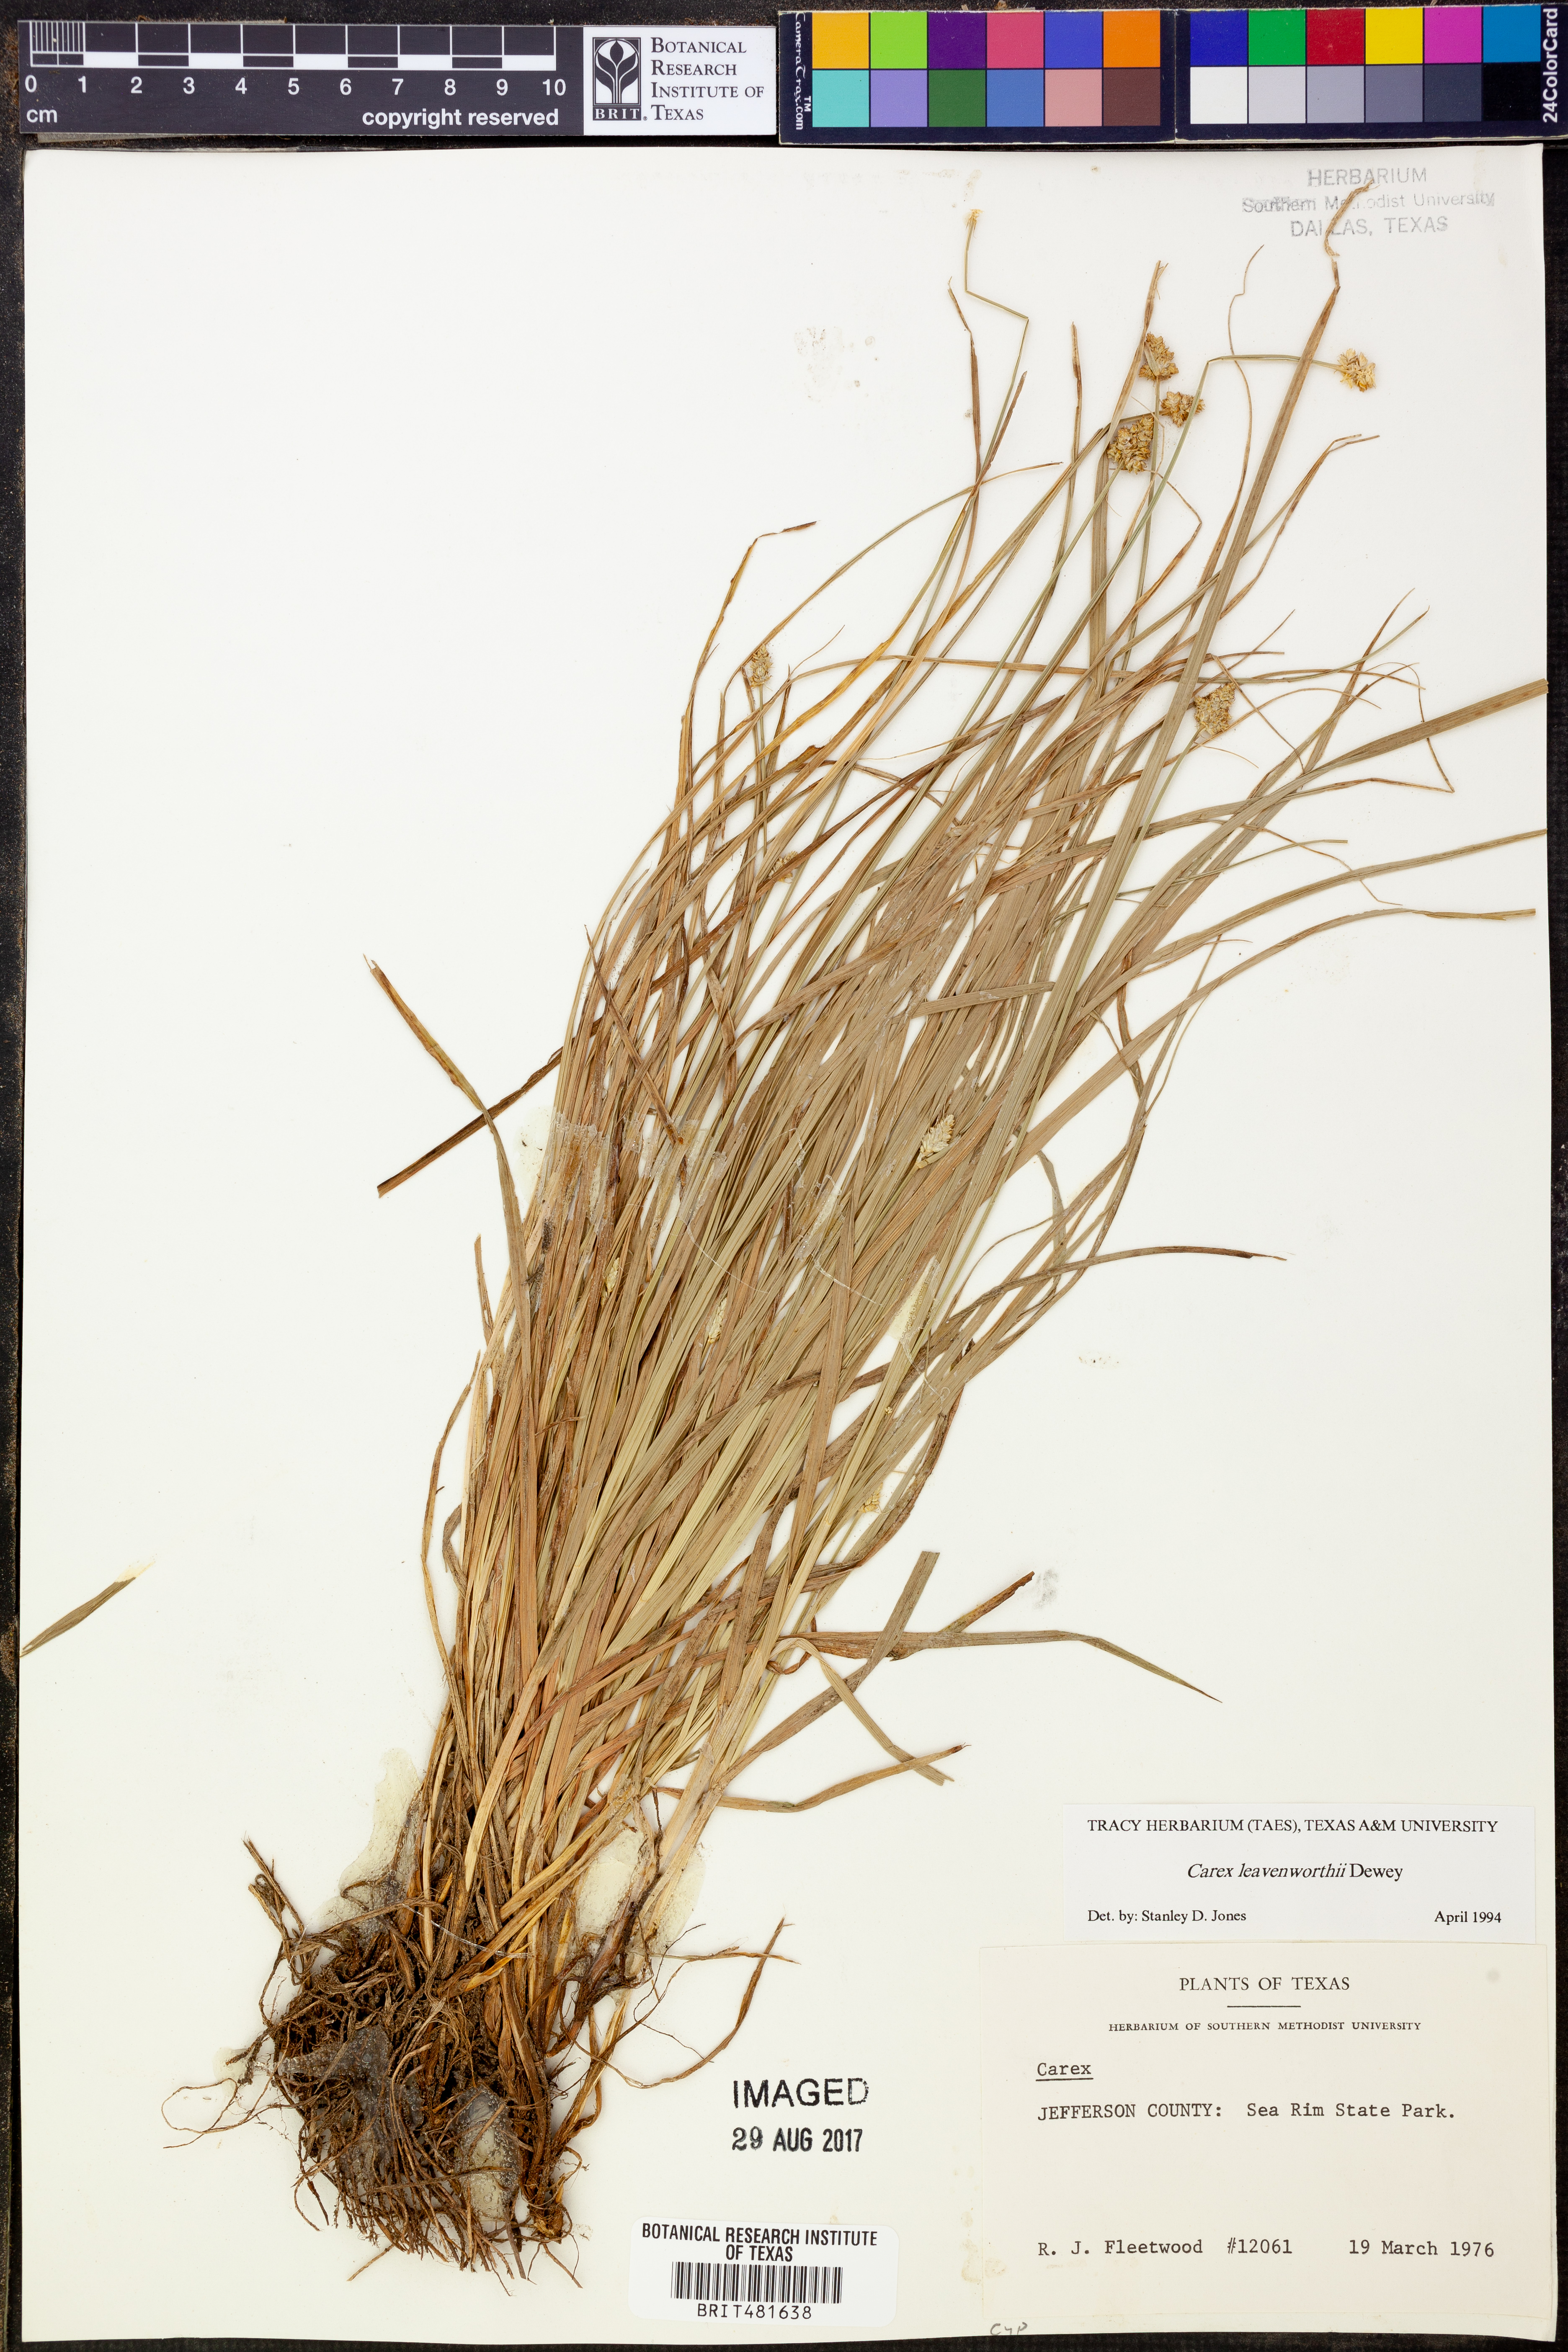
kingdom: Plantae
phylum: Tracheophyta
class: Liliopsida
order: Poales
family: Cyperaceae
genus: Carex
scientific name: Carex leavenworthii
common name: Leavenworth's bracted sedge
